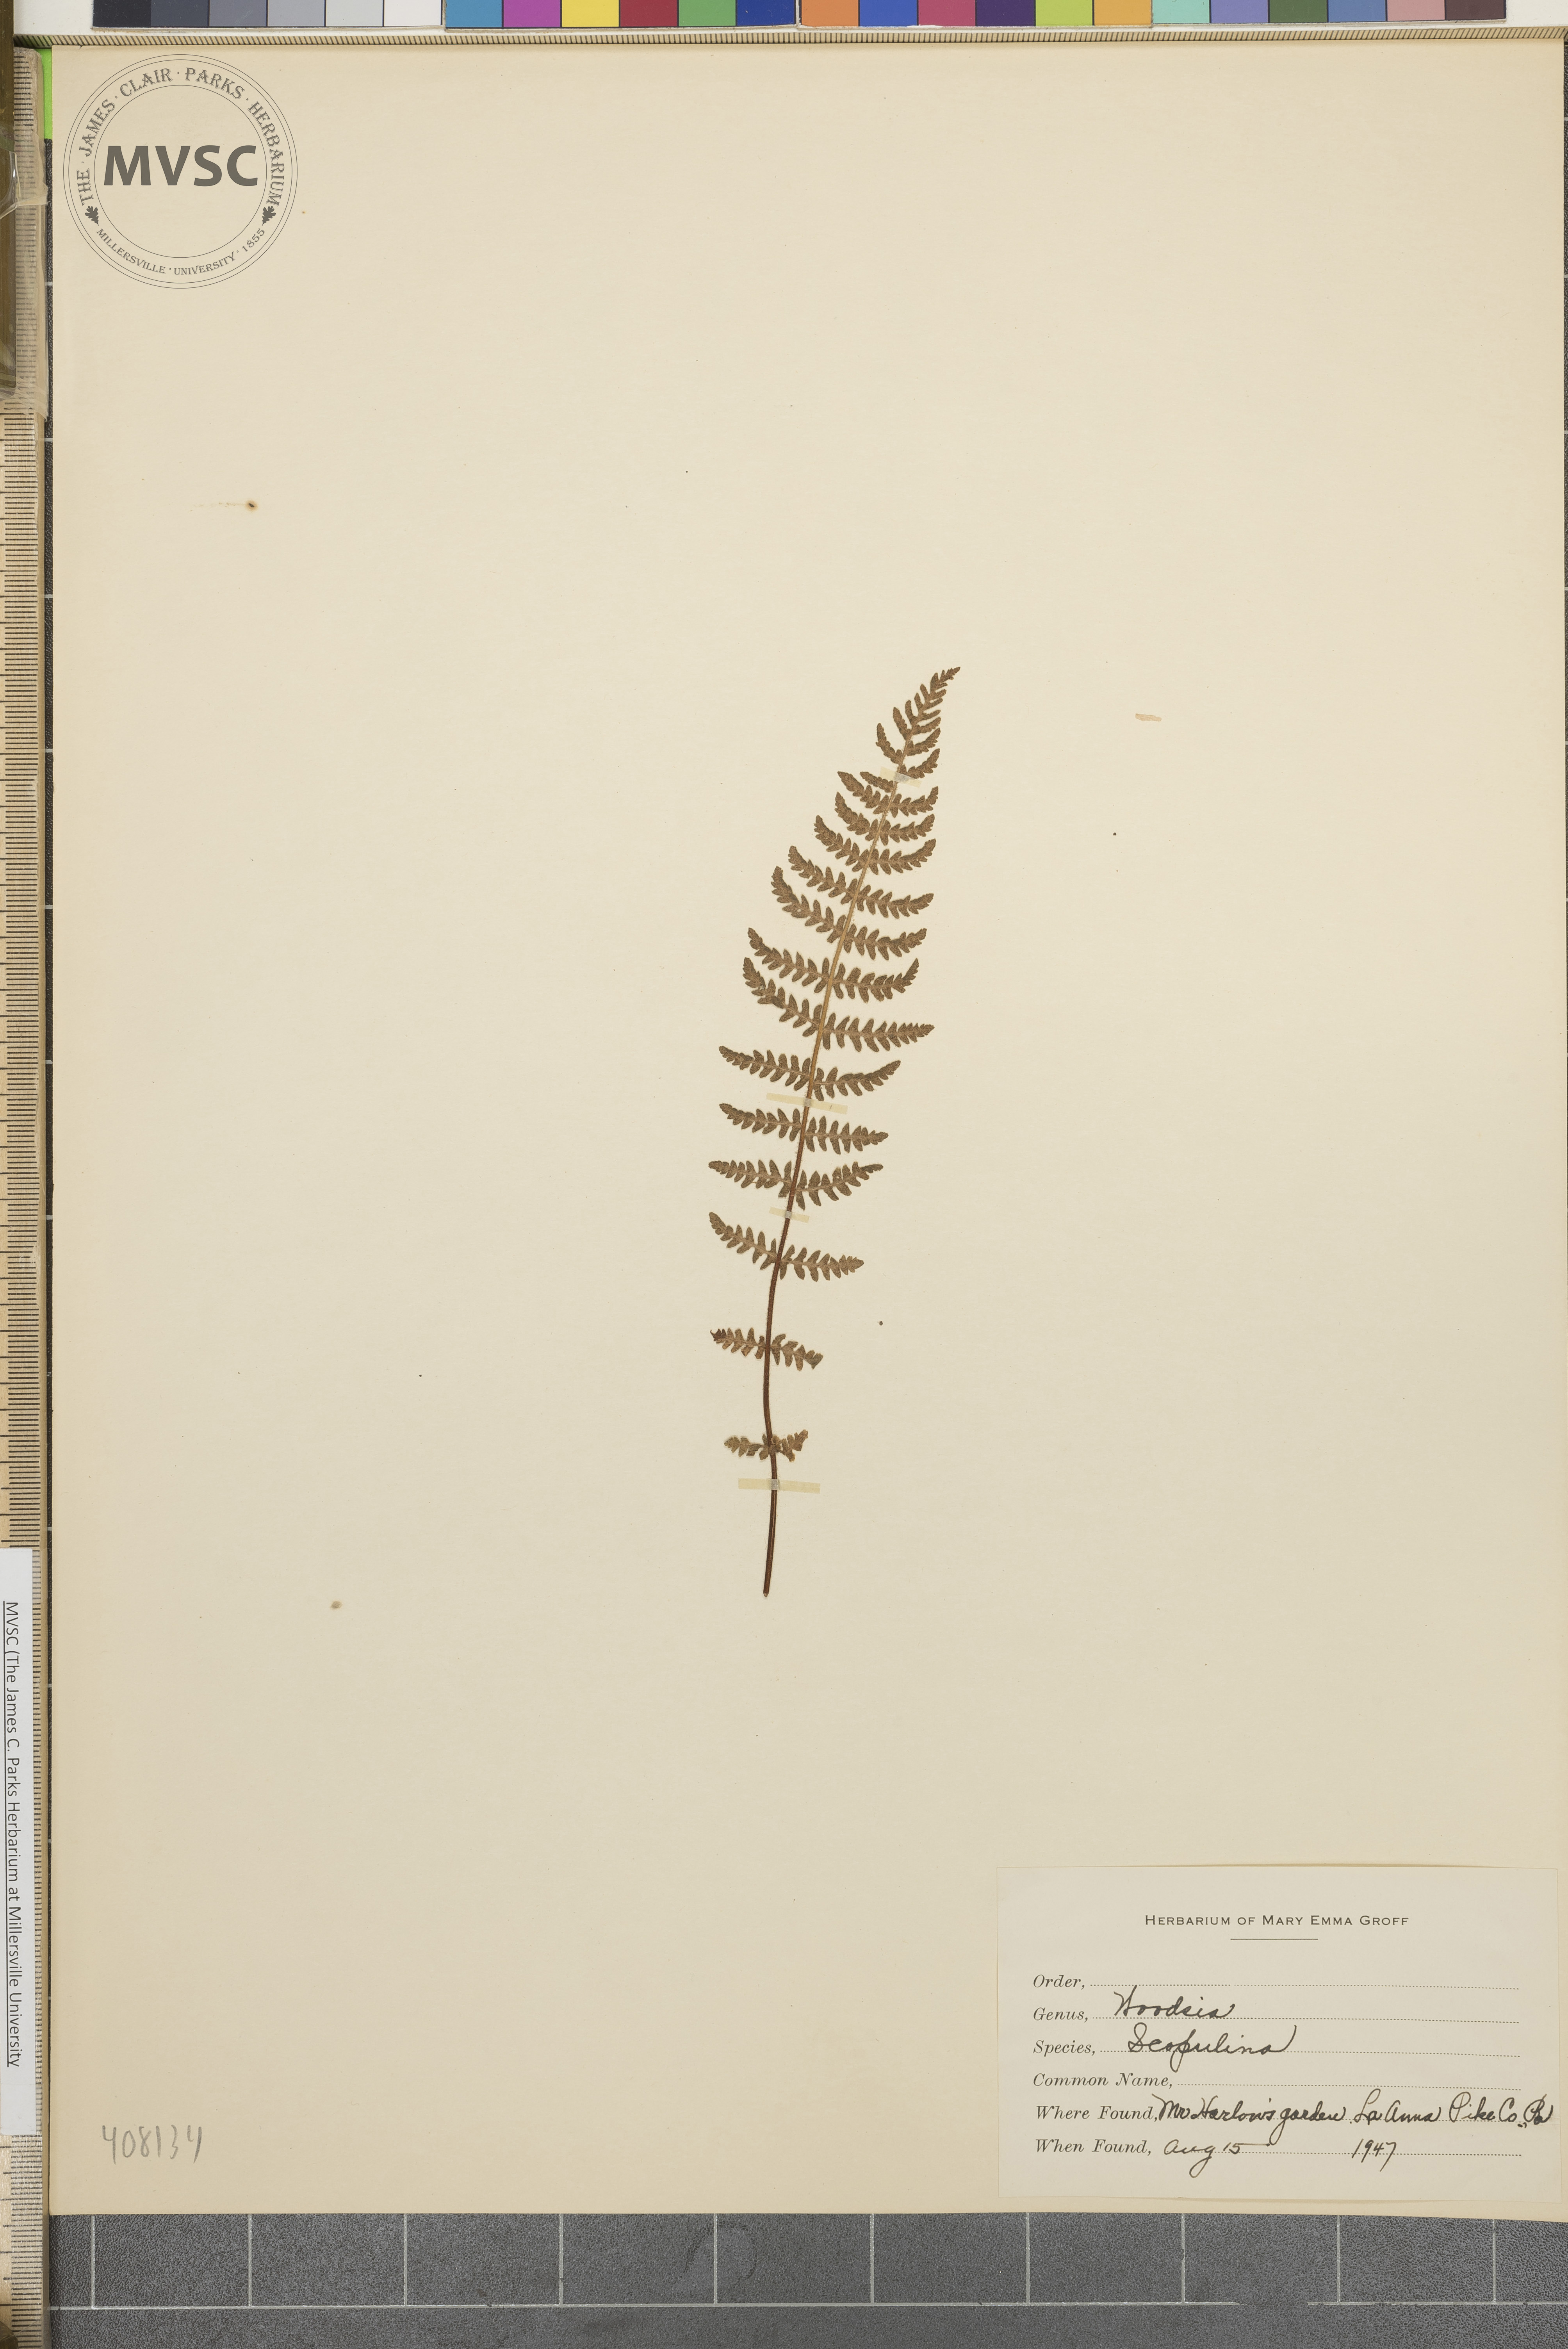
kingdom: Plantae
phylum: Tracheophyta
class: Polypodiopsida
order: Polypodiales
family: Woodsiaceae
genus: Physematium
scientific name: Physematium scopulinum
